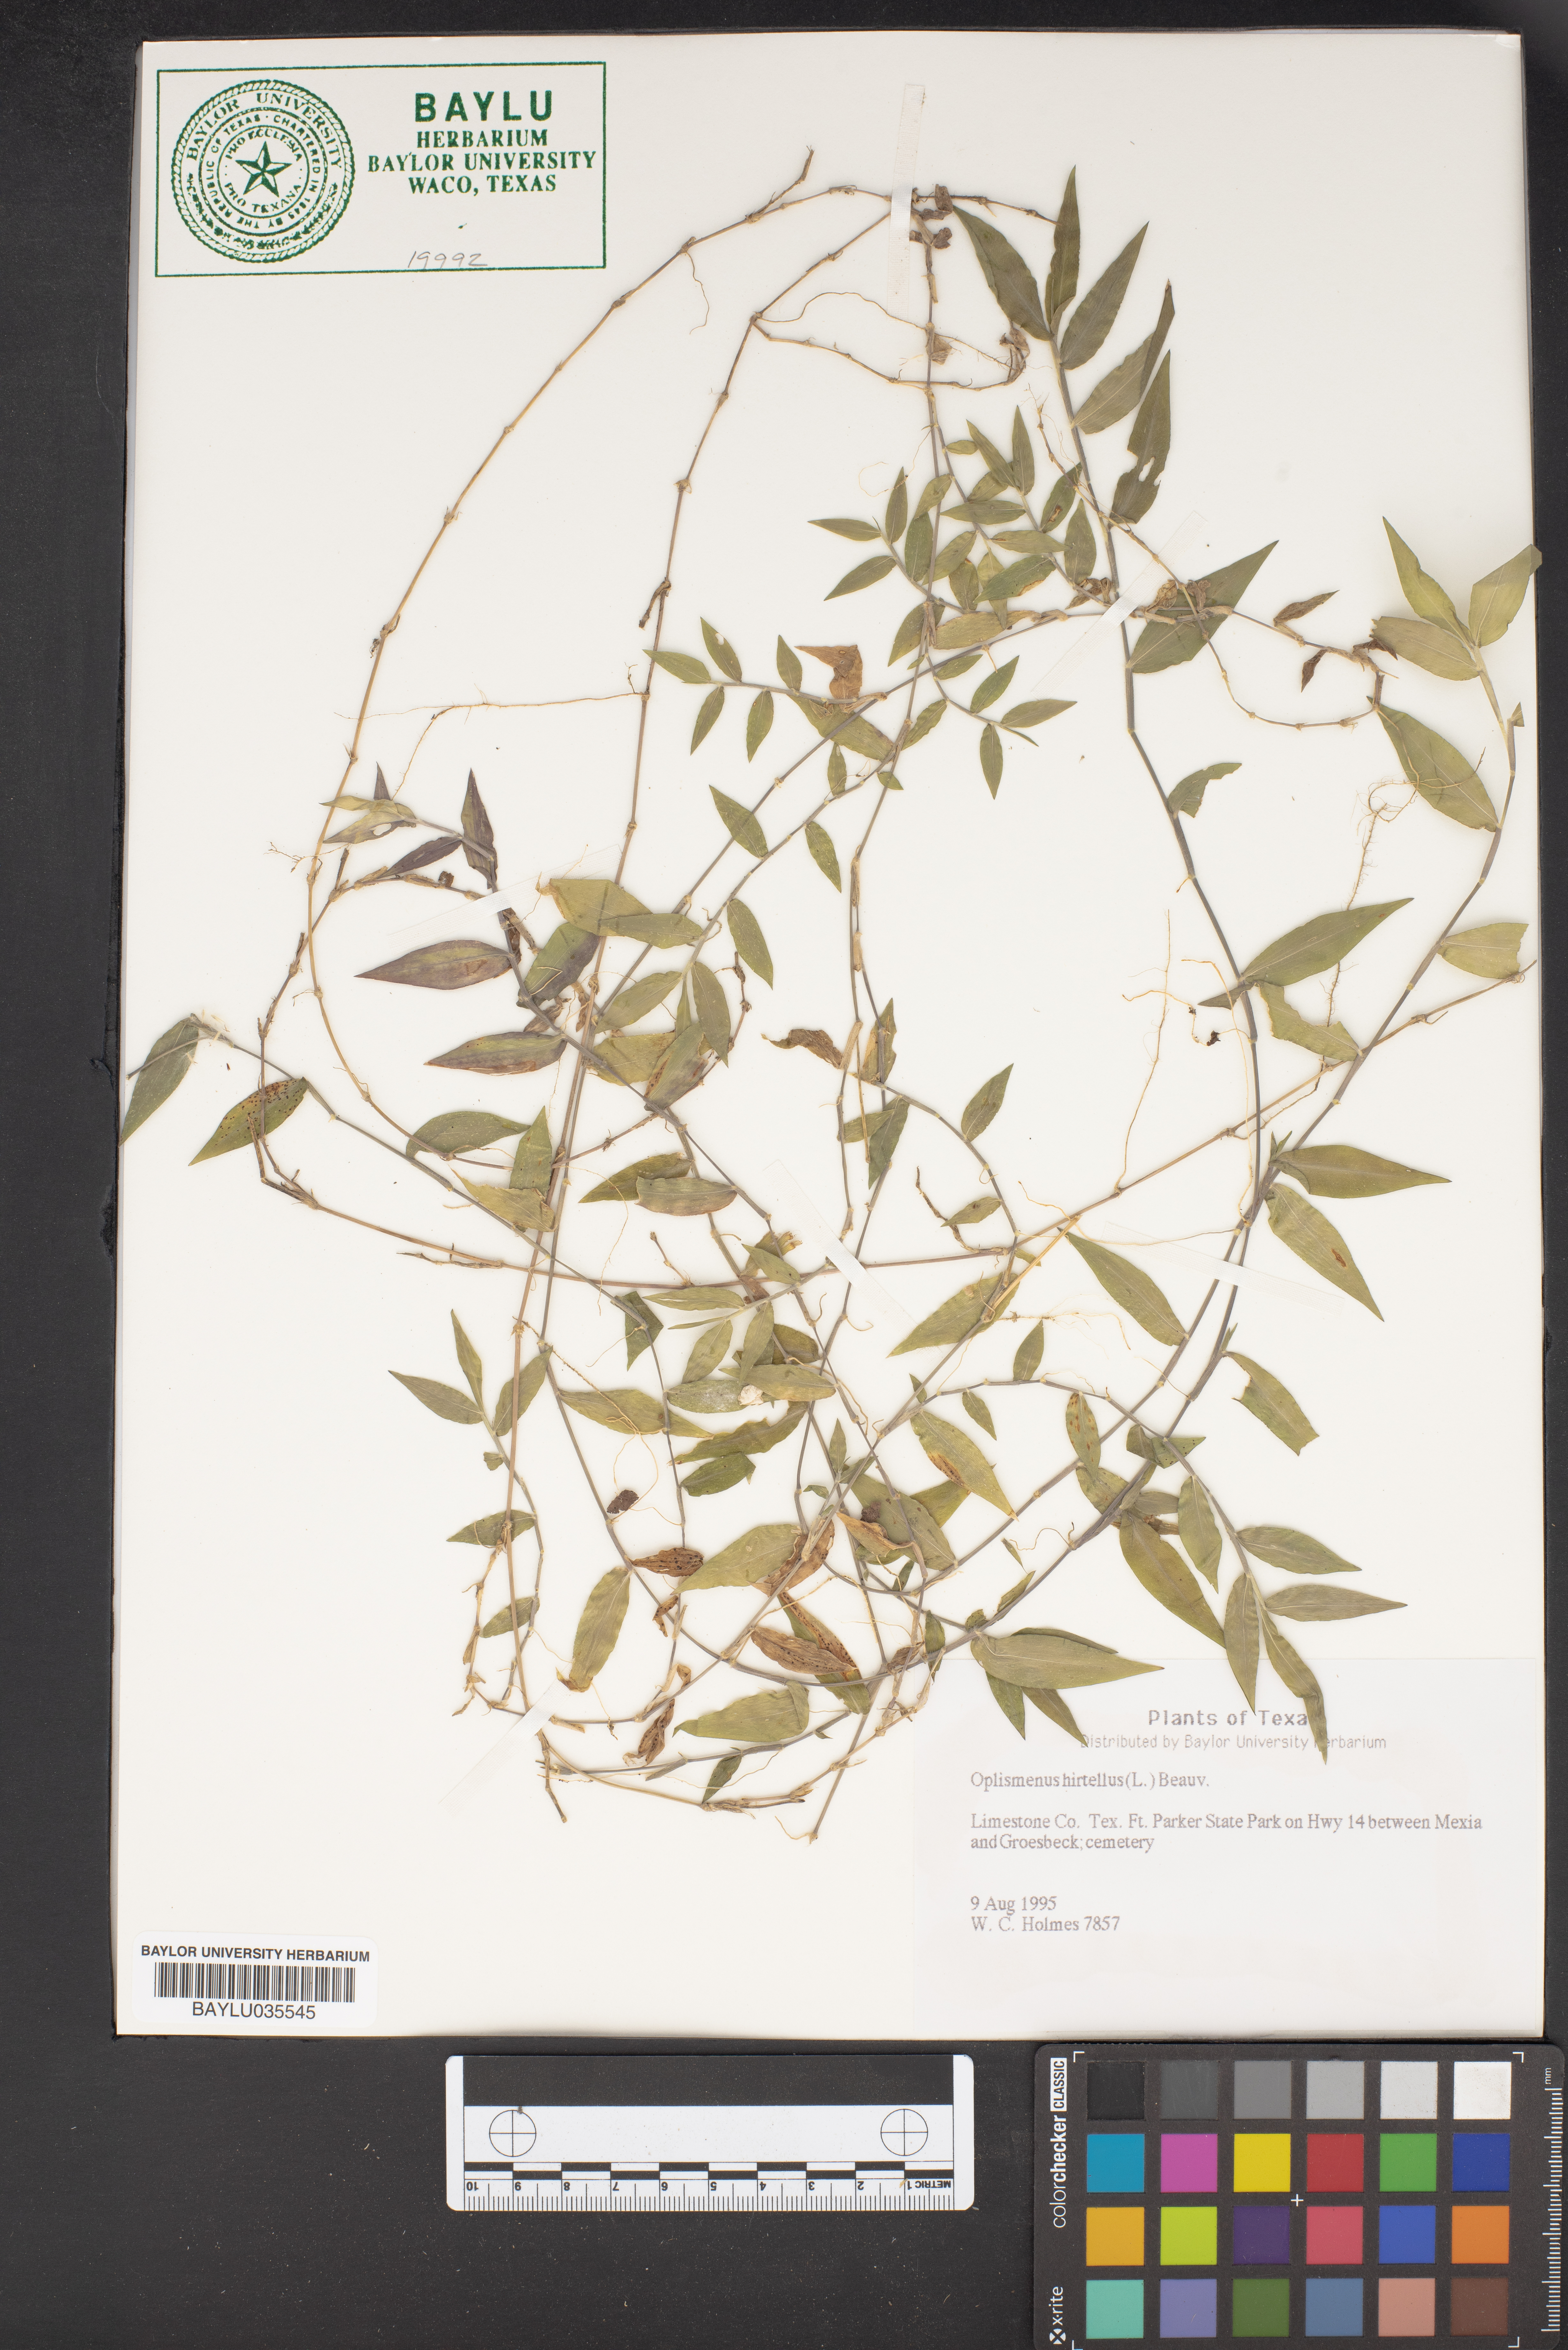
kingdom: Plantae
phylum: Tracheophyta
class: Liliopsida
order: Poales
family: Poaceae
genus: Oplismenus
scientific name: Oplismenus hirtellus
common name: Basketgrass
